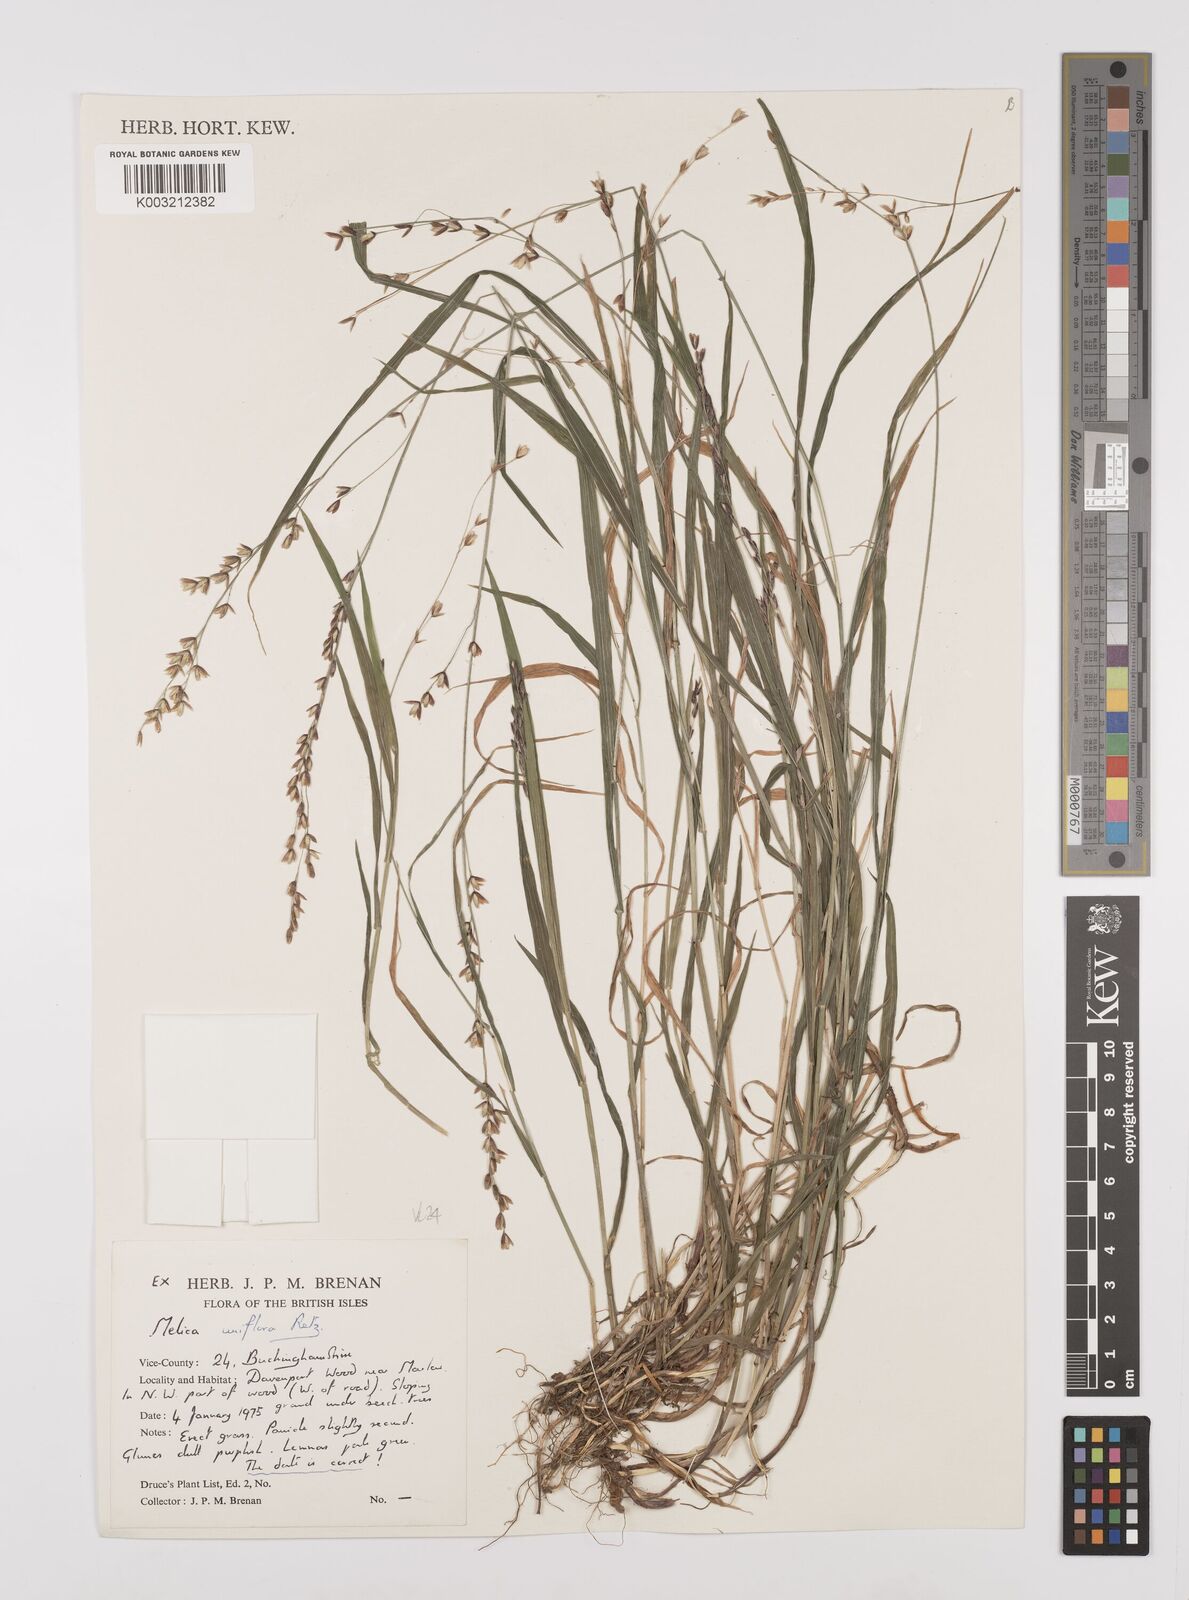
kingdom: Plantae
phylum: Tracheophyta
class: Liliopsida
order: Poales
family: Poaceae
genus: Melica
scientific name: Melica uniflora
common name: Wood melick
